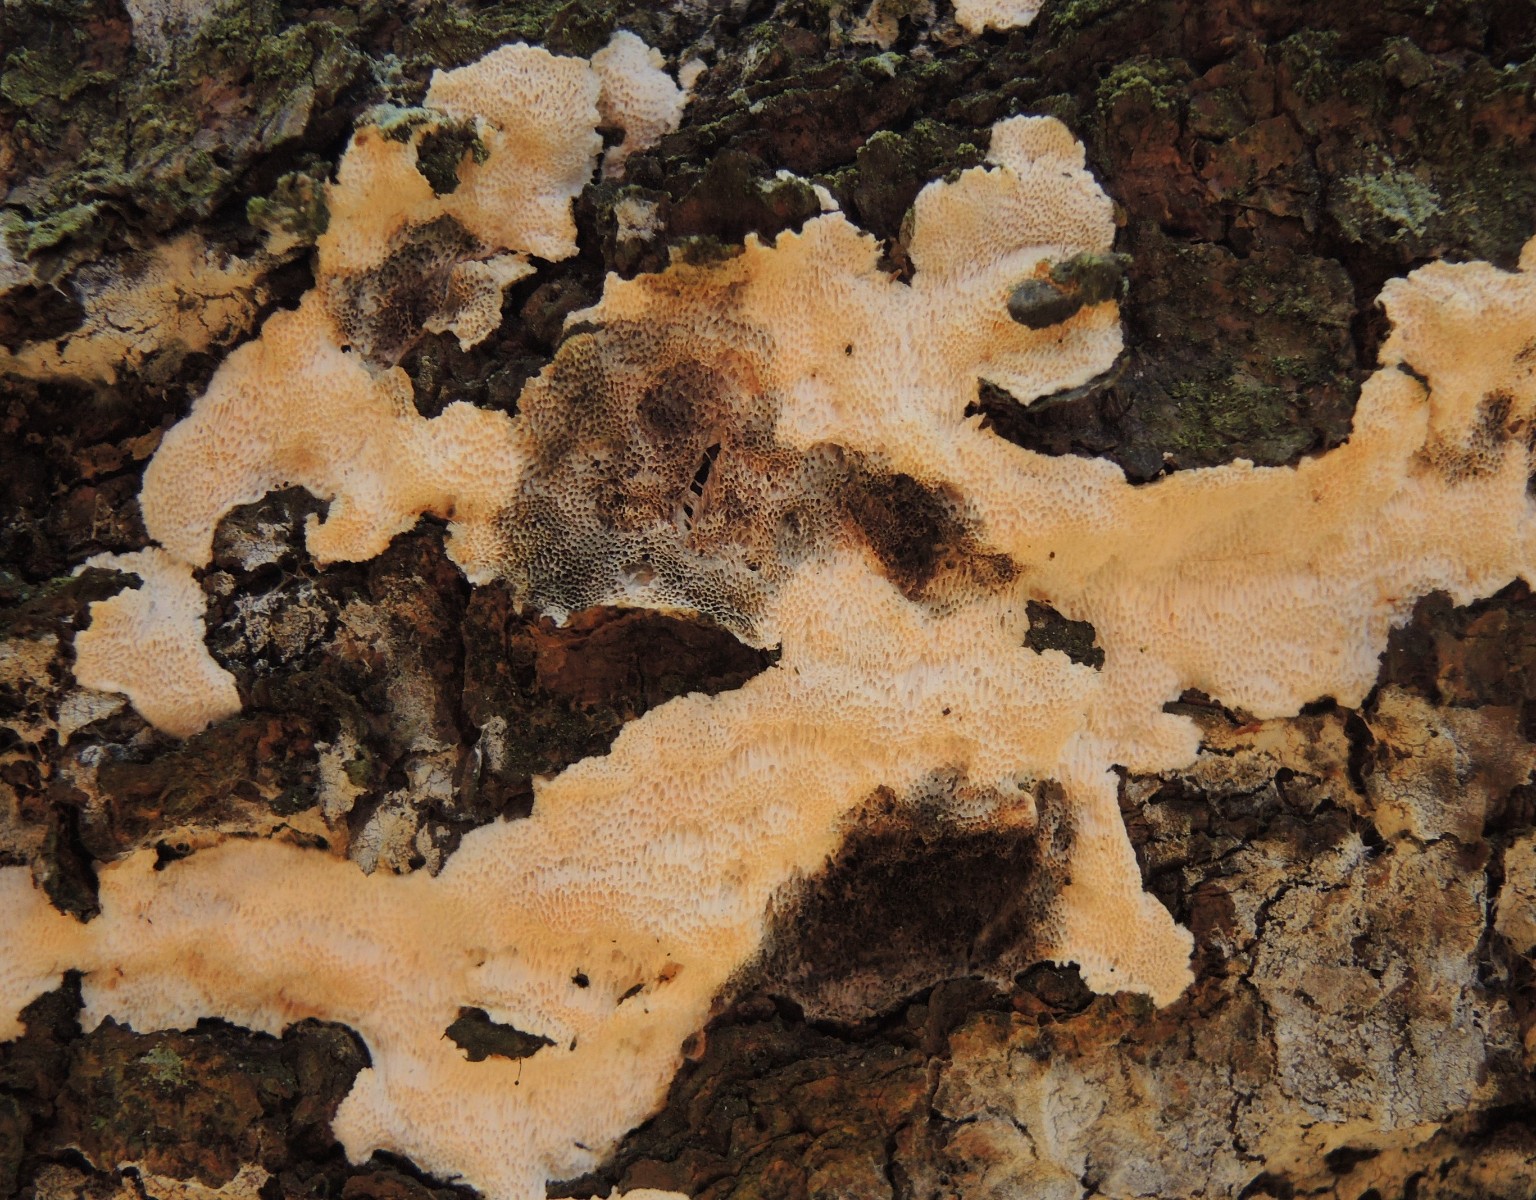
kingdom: Fungi
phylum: Basidiomycota
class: Agaricomycetes
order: Polyporales
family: Gelatoporiaceae
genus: Cinereomyces
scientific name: Cinereomyces lindbladii
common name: almindelig gråporesvamp
